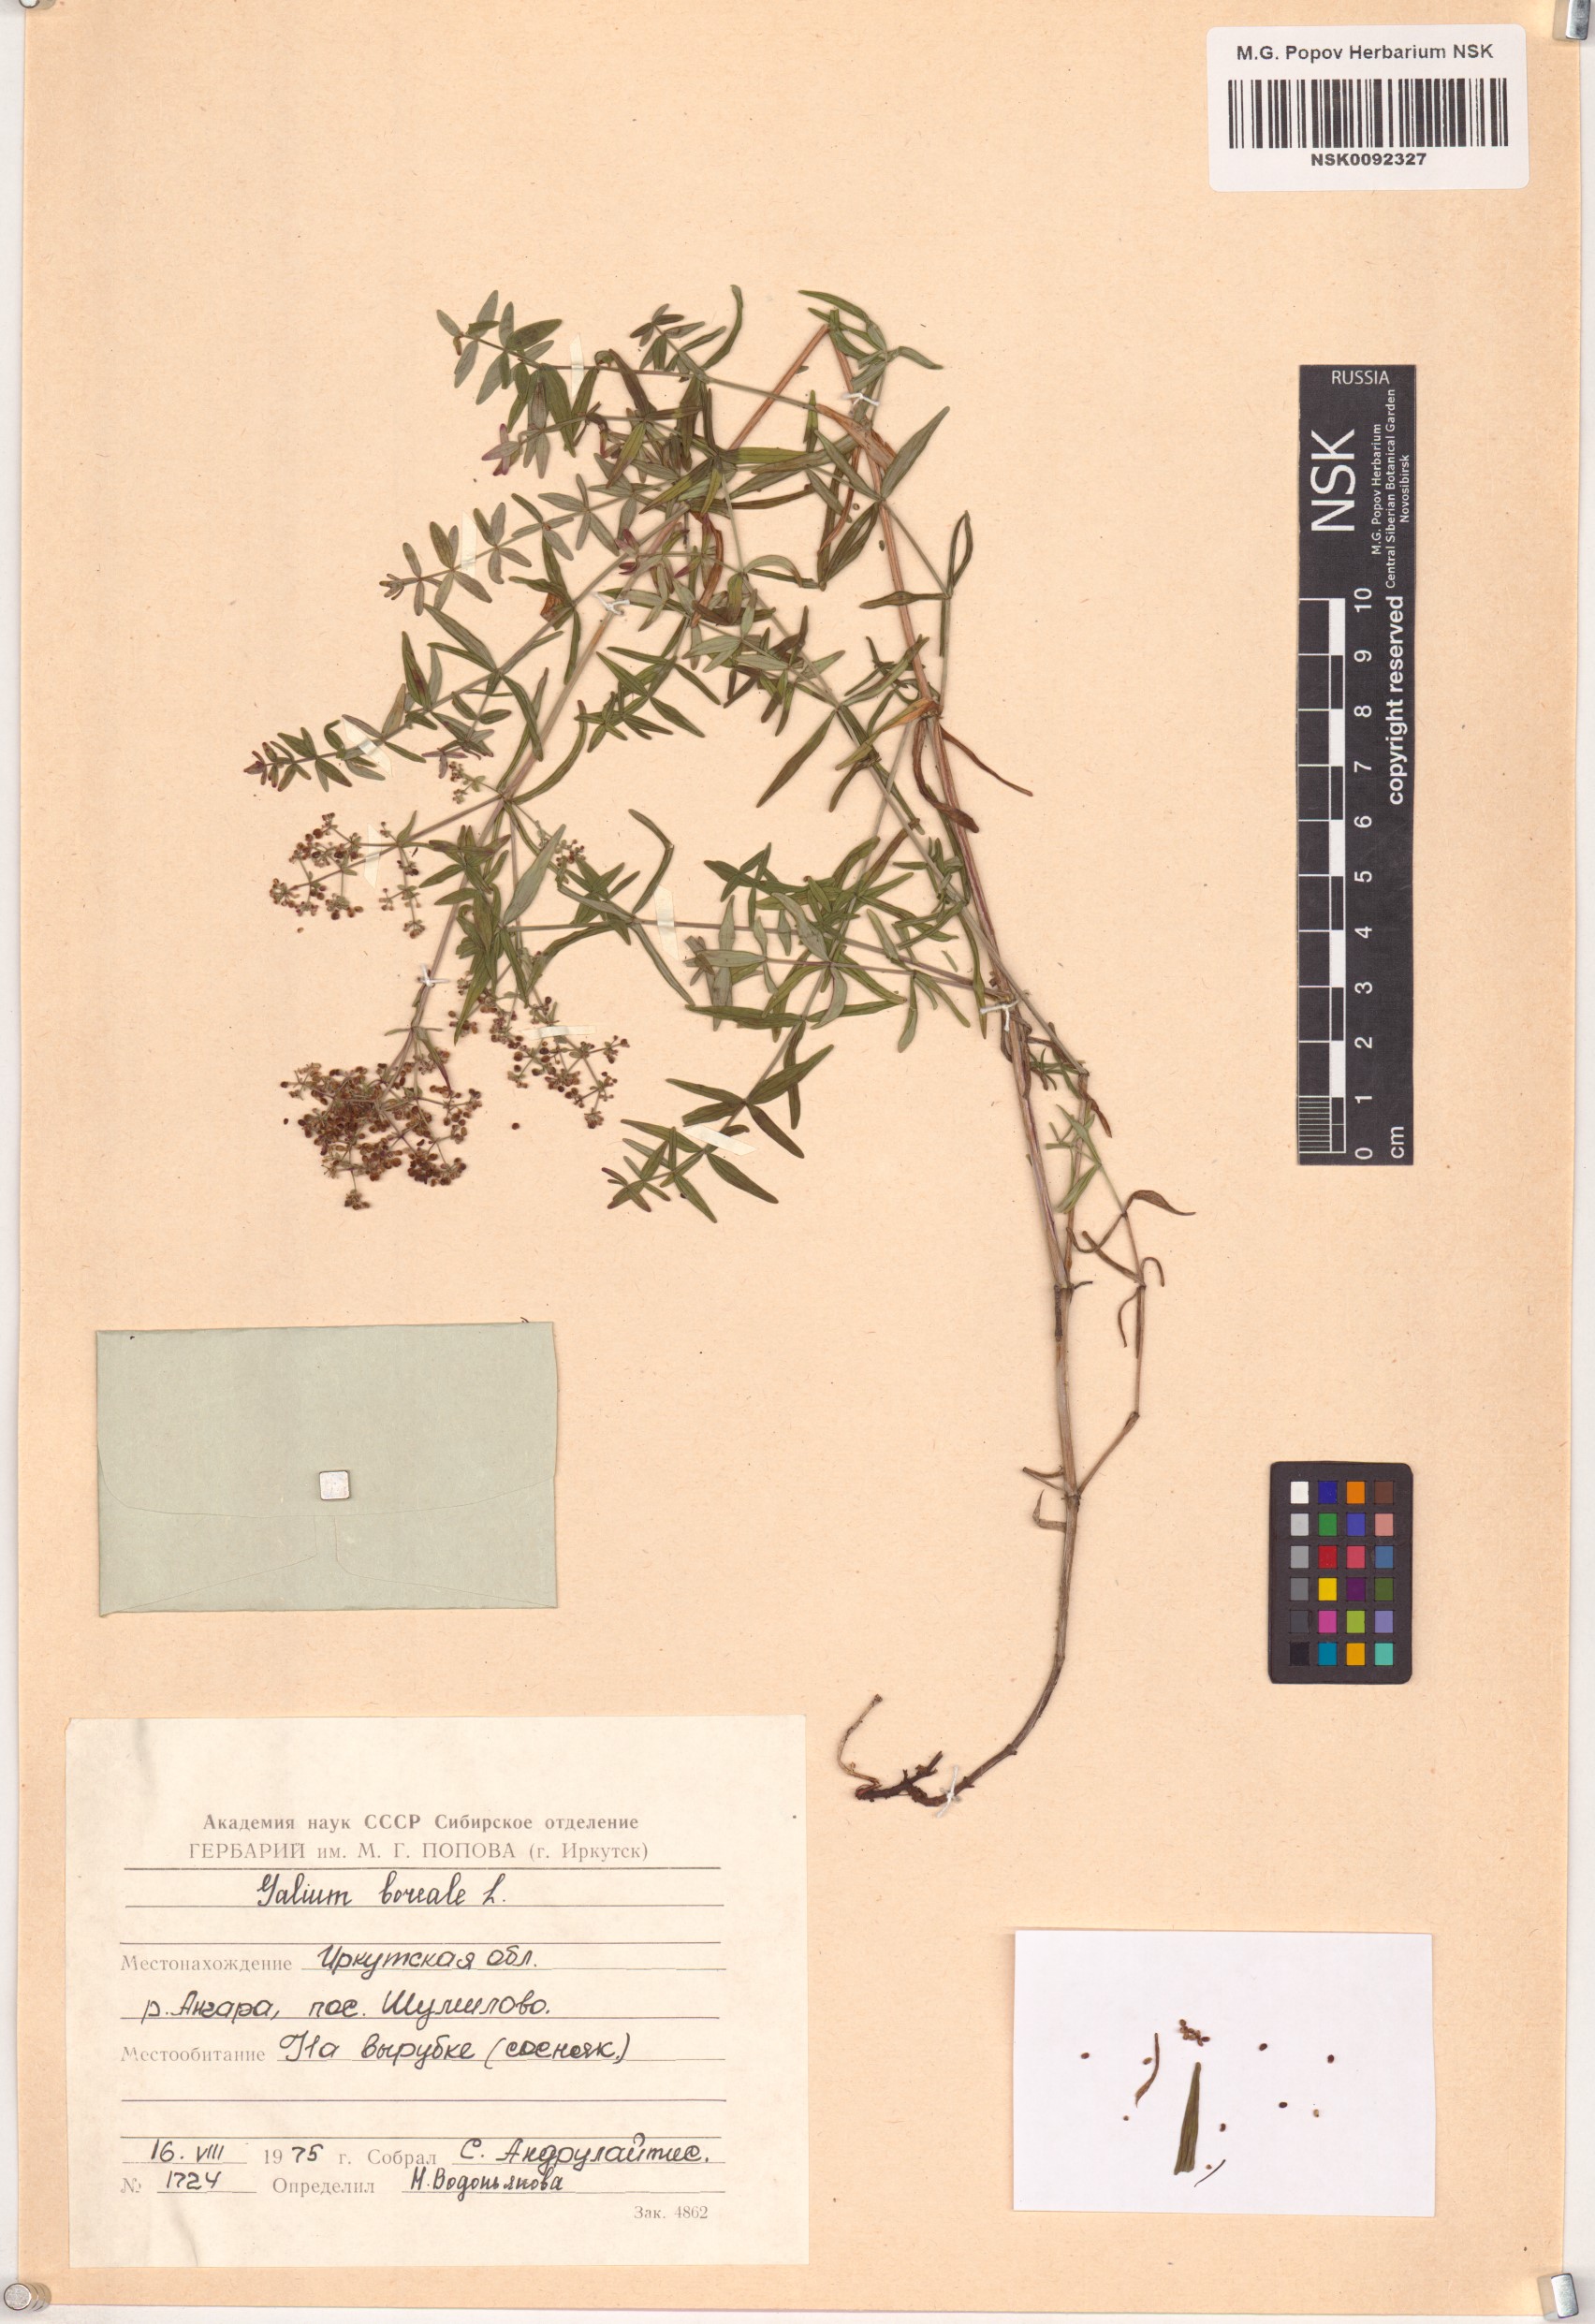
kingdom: Plantae
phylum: Tracheophyta
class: Magnoliopsida
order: Gentianales
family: Rubiaceae
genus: Galium
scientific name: Galium boreale
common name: Northern bedstraw
